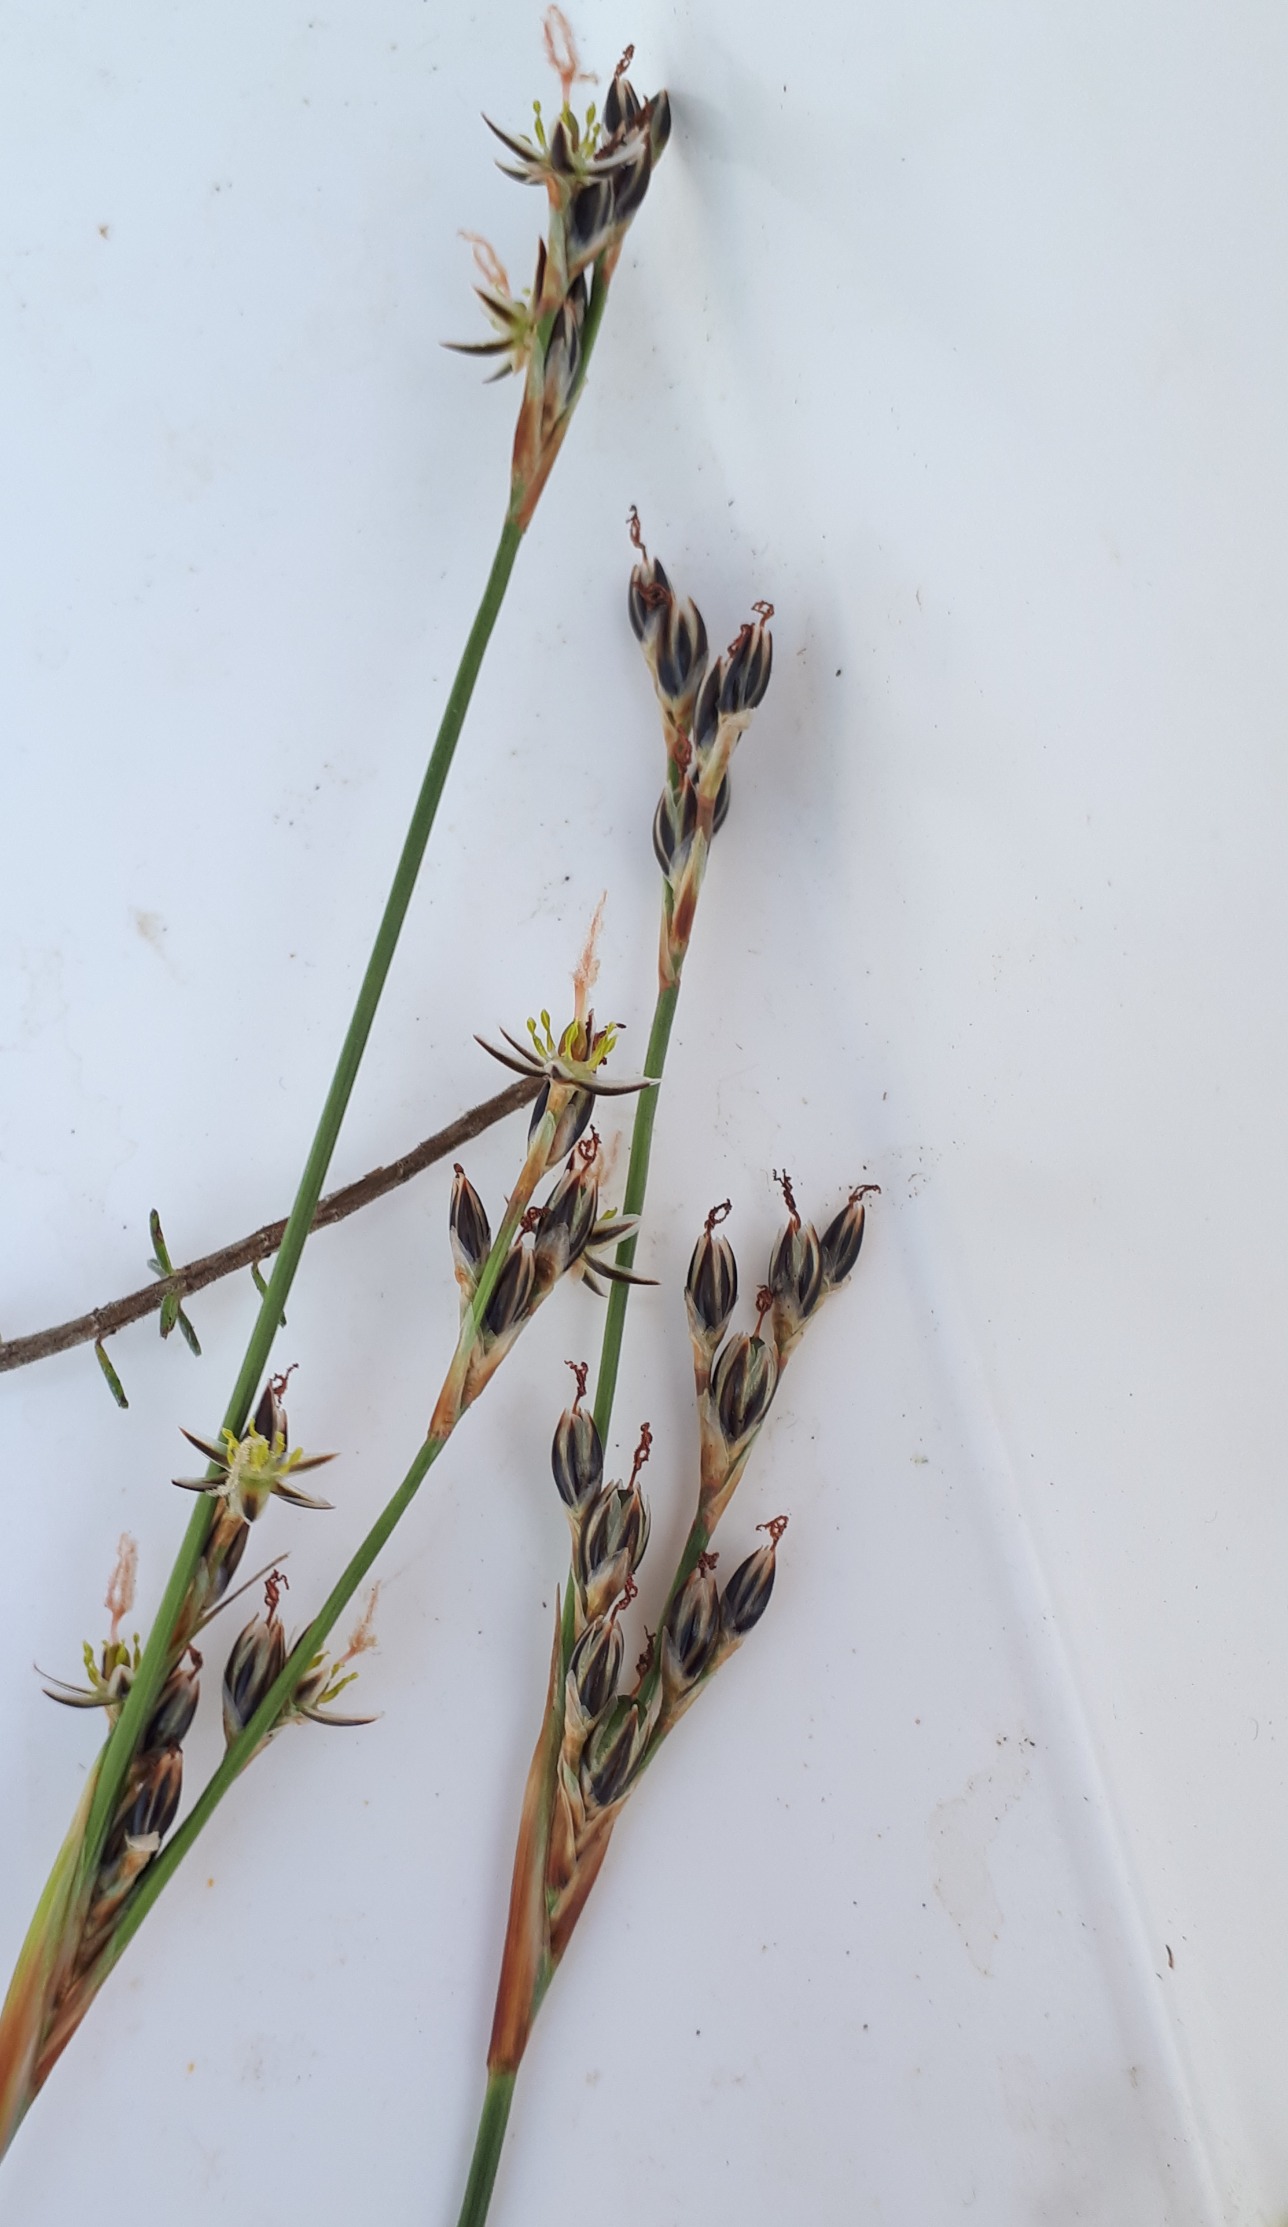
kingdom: Plantae
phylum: Tracheophyta
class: Liliopsida
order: Poales
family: Juncaceae
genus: Juncus
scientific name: Juncus squarrosus
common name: Børste-siv
